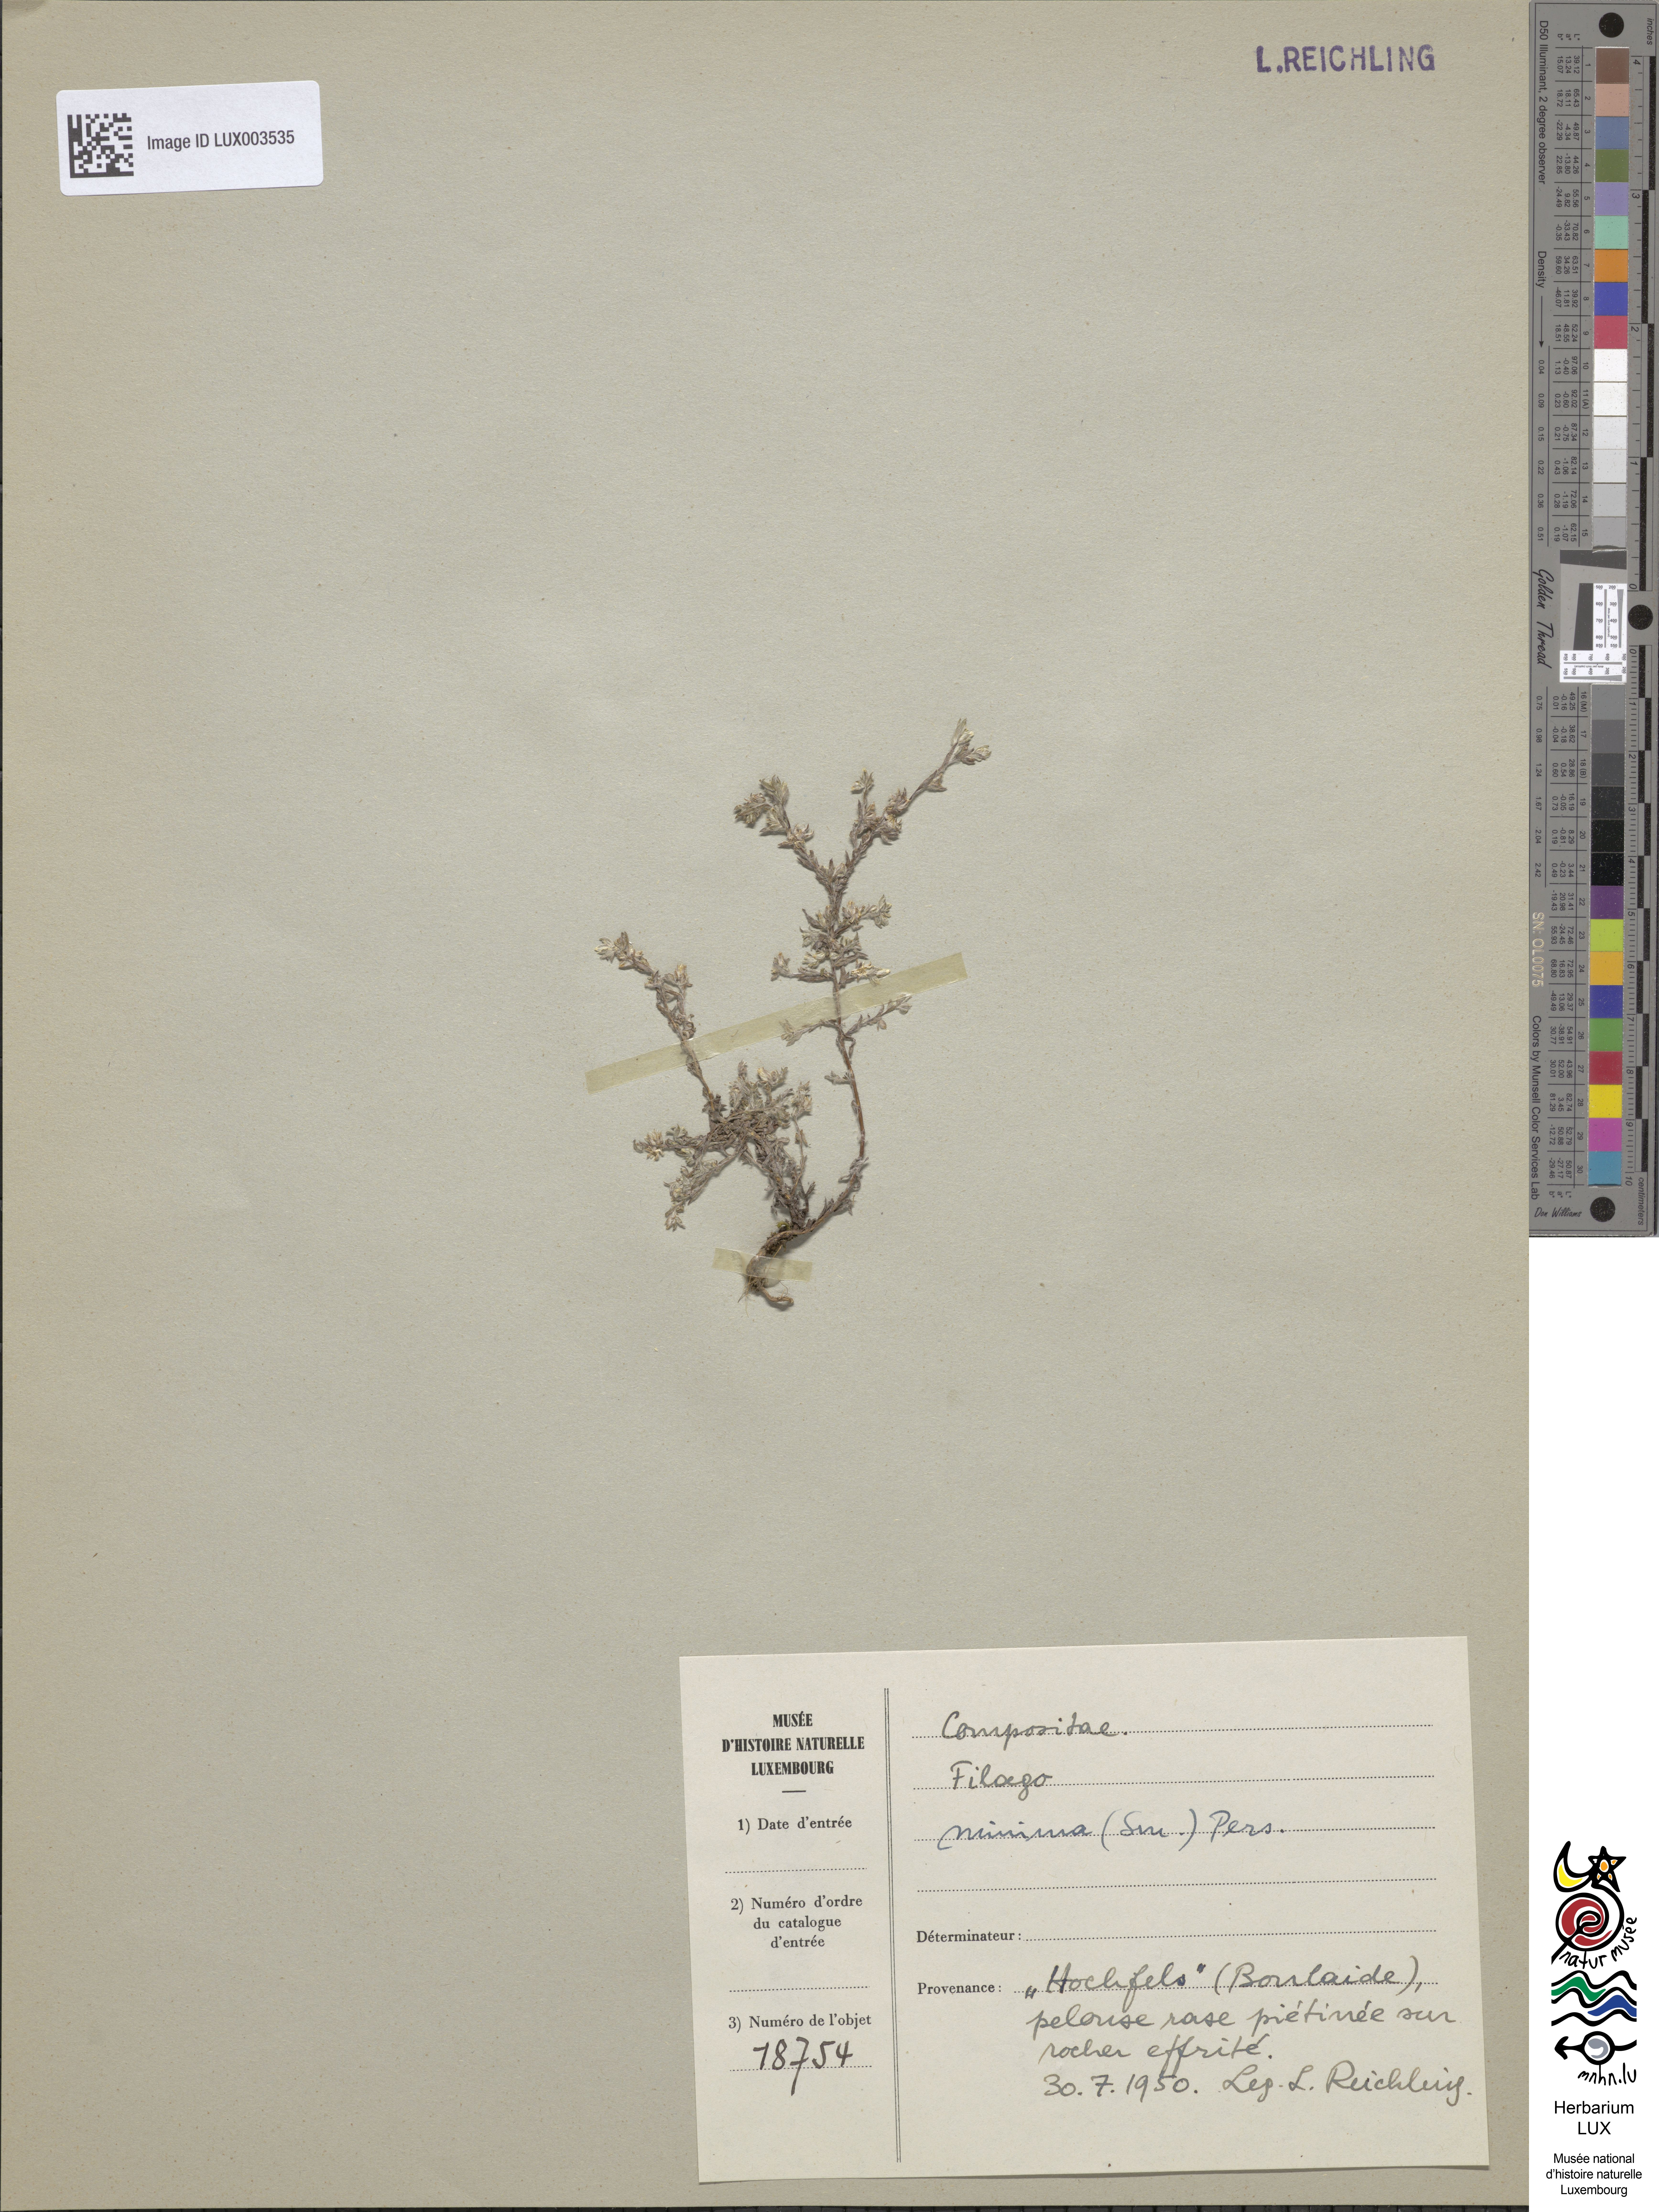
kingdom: Plantae
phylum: Tracheophyta
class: Magnoliopsida
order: Asterales
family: Asteraceae
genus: Logfia
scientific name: Logfia minima
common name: Little cottonrose
